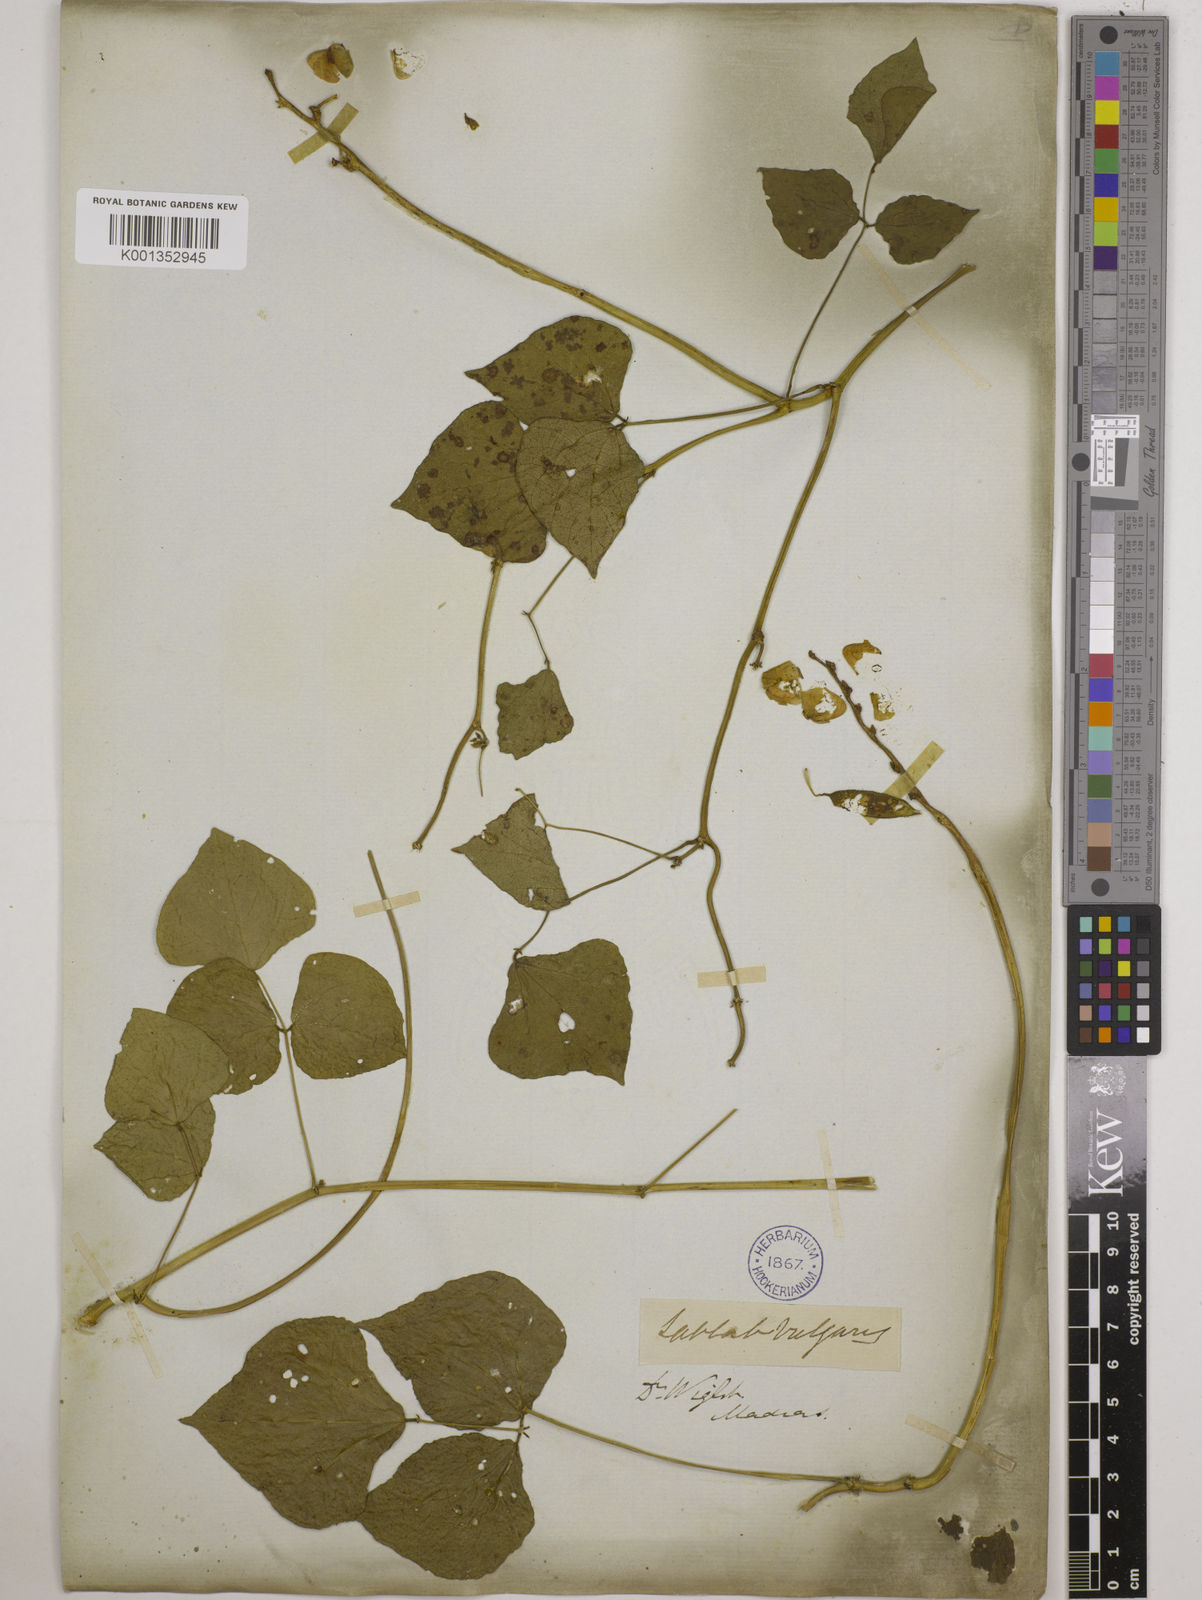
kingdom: Plantae
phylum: Tracheophyta
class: Magnoliopsida
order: Fabales
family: Fabaceae
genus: Lablab
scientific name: Lablab purpureus
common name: Lablab-bean
